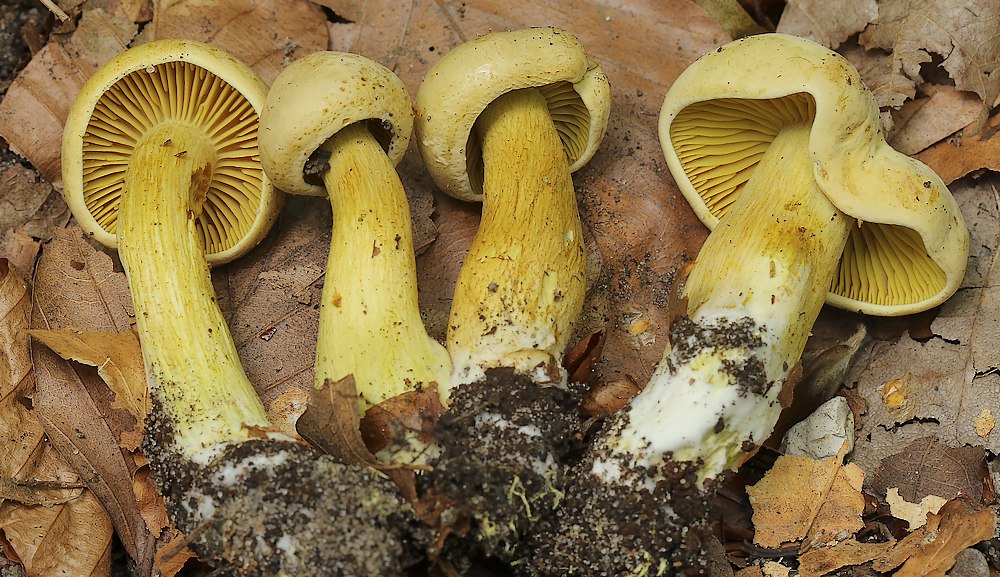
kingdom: Fungi
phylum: Basidiomycota
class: Agaricomycetes
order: Agaricales
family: Tricholomataceae
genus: Tricholoma
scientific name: Tricholoma sulphureum
